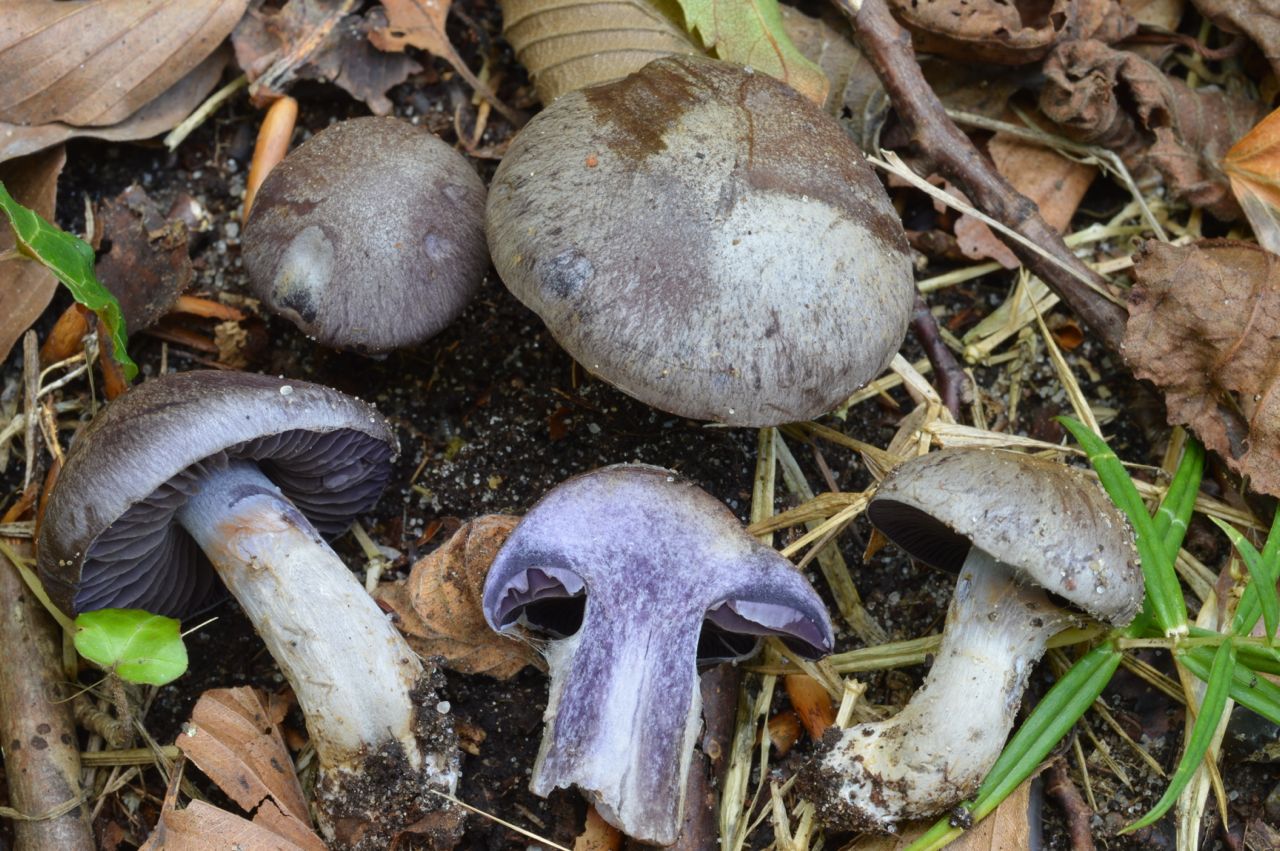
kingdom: Fungi
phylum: Basidiomycota
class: Agaricomycetes
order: Agaricales
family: Cortinariaceae
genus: Cortinarius
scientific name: Cortinarius
